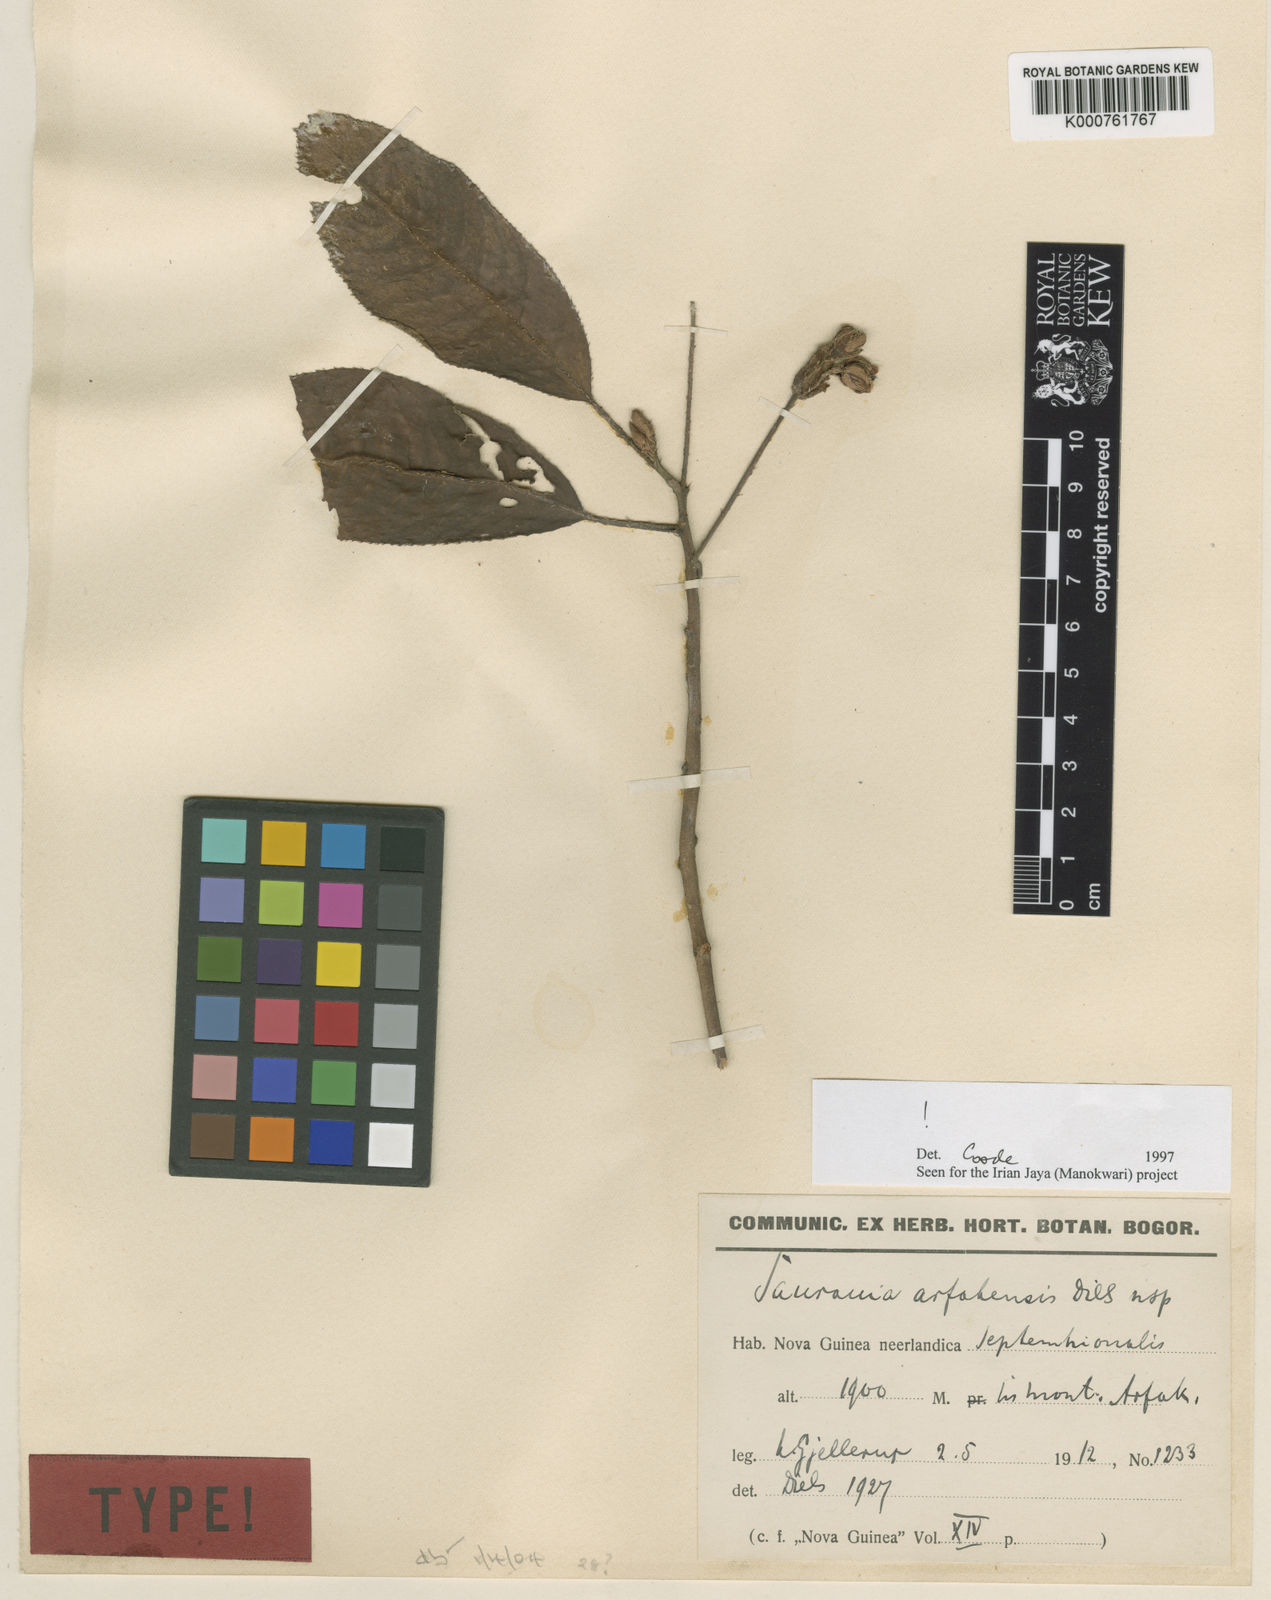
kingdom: Plantae
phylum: Tracheophyta
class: Magnoliopsida
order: Ericales
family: Actinidiaceae
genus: Saurauia
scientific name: Saurauia
